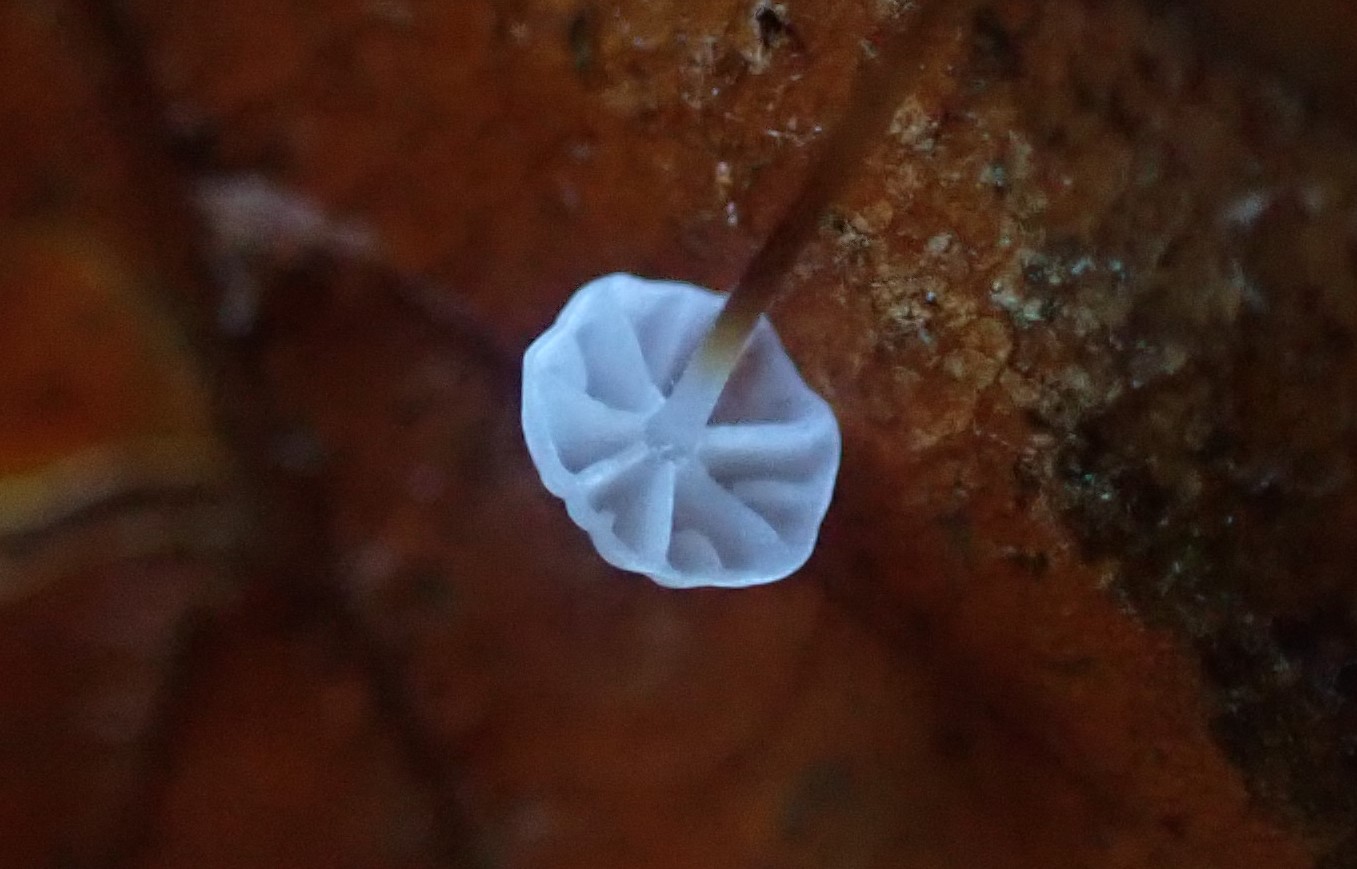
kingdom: Fungi
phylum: Basidiomycota
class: Agaricomycetes
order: Agaricales
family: Physalacriaceae
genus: Rhizomarasmius
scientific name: Rhizomarasmius setosus
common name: bøgeblads-bruskhat
